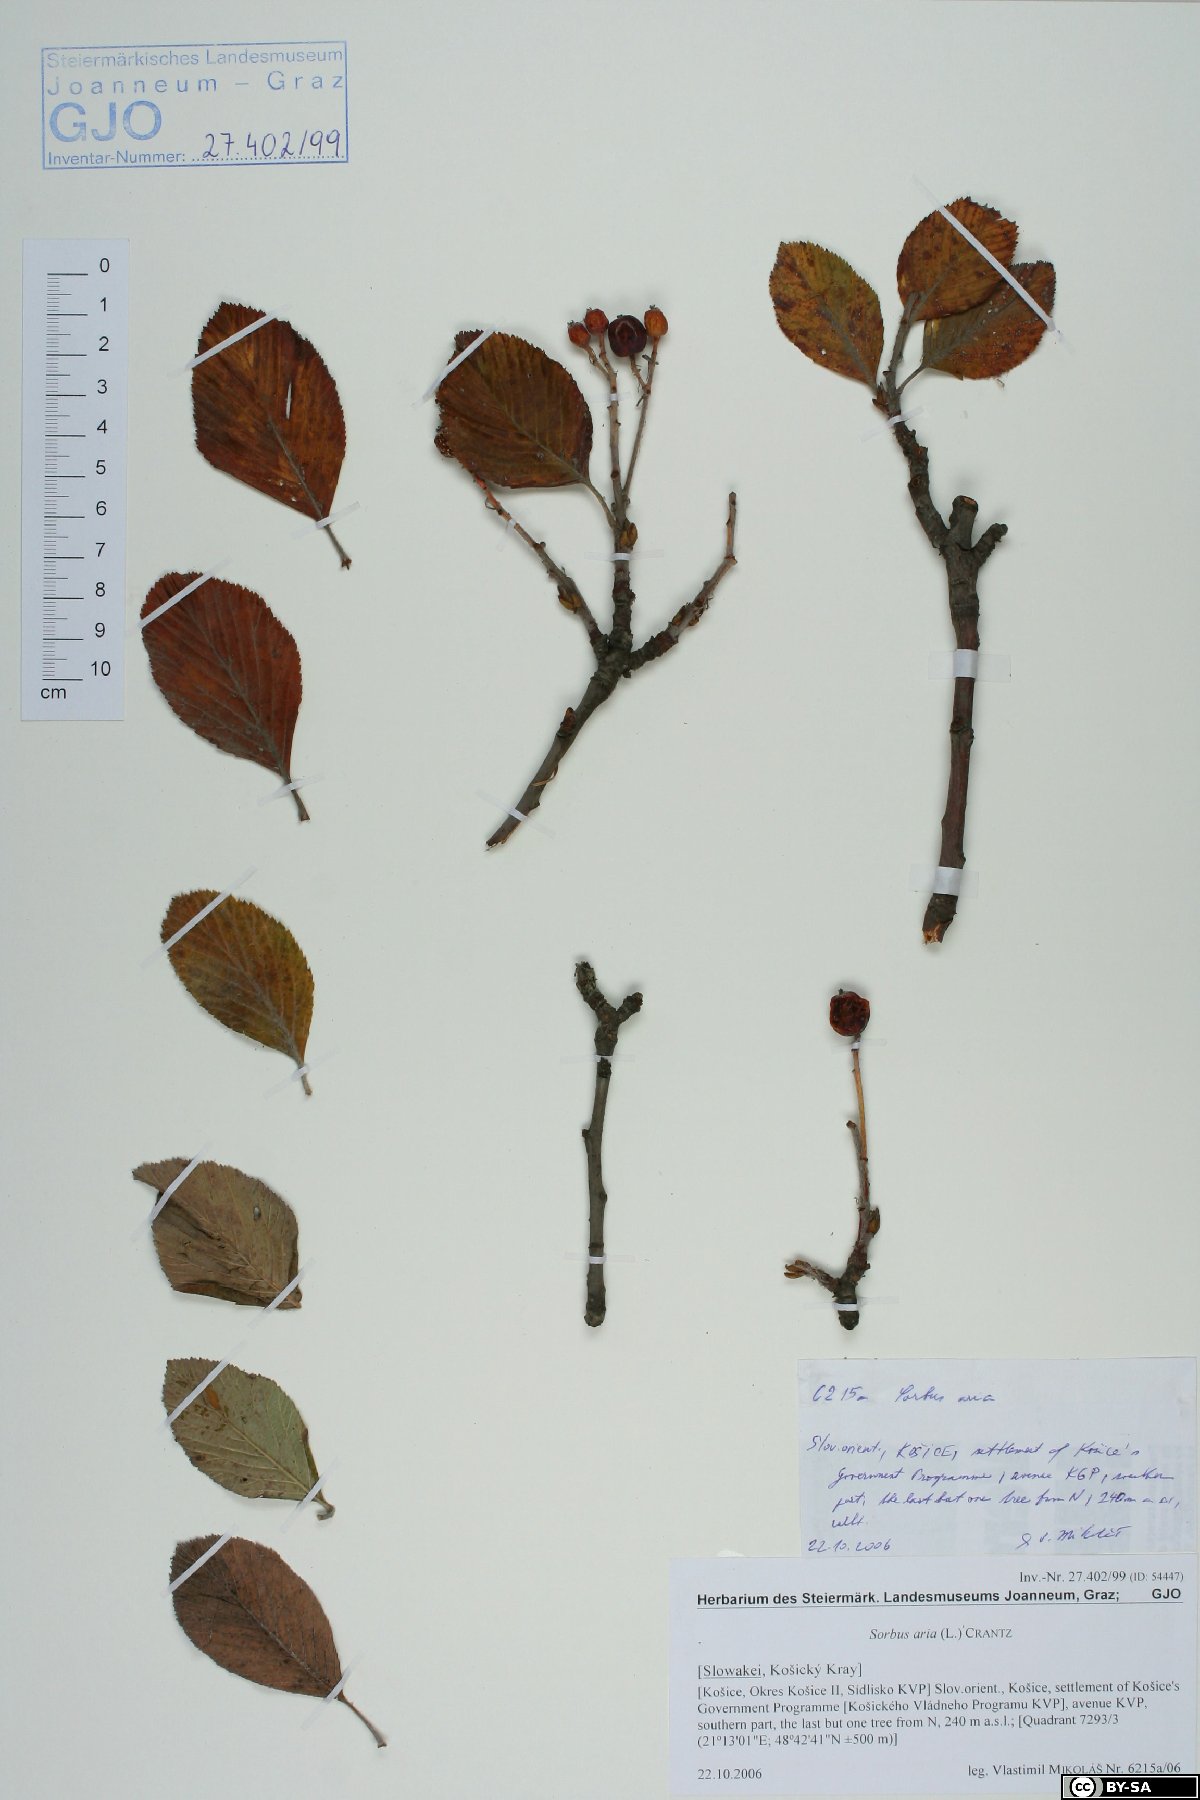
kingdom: Plantae
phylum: Tracheophyta
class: Magnoliopsida
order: Rosales
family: Rosaceae
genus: Aria
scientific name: Aria edulis
